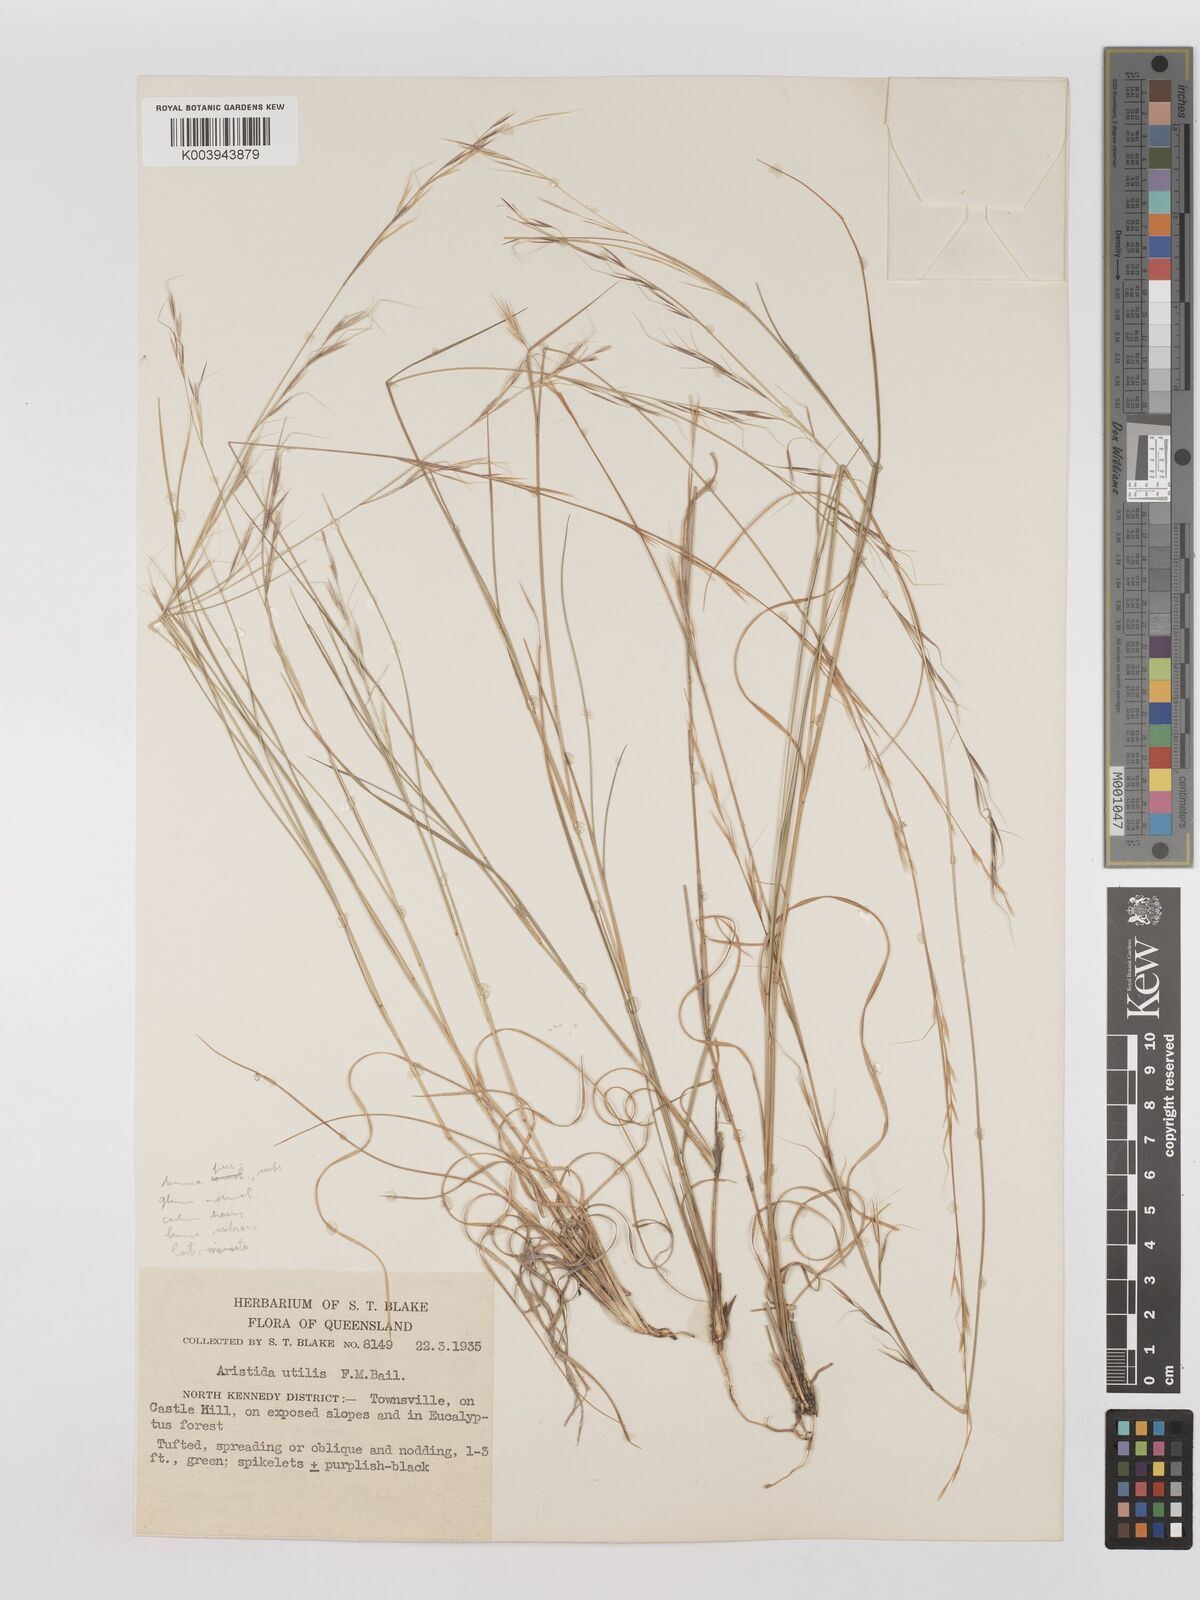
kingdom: Plantae
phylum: Tracheophyta
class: Liliopsida
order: Poales
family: Poaceae
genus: Aristida
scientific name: Aristida utilis
